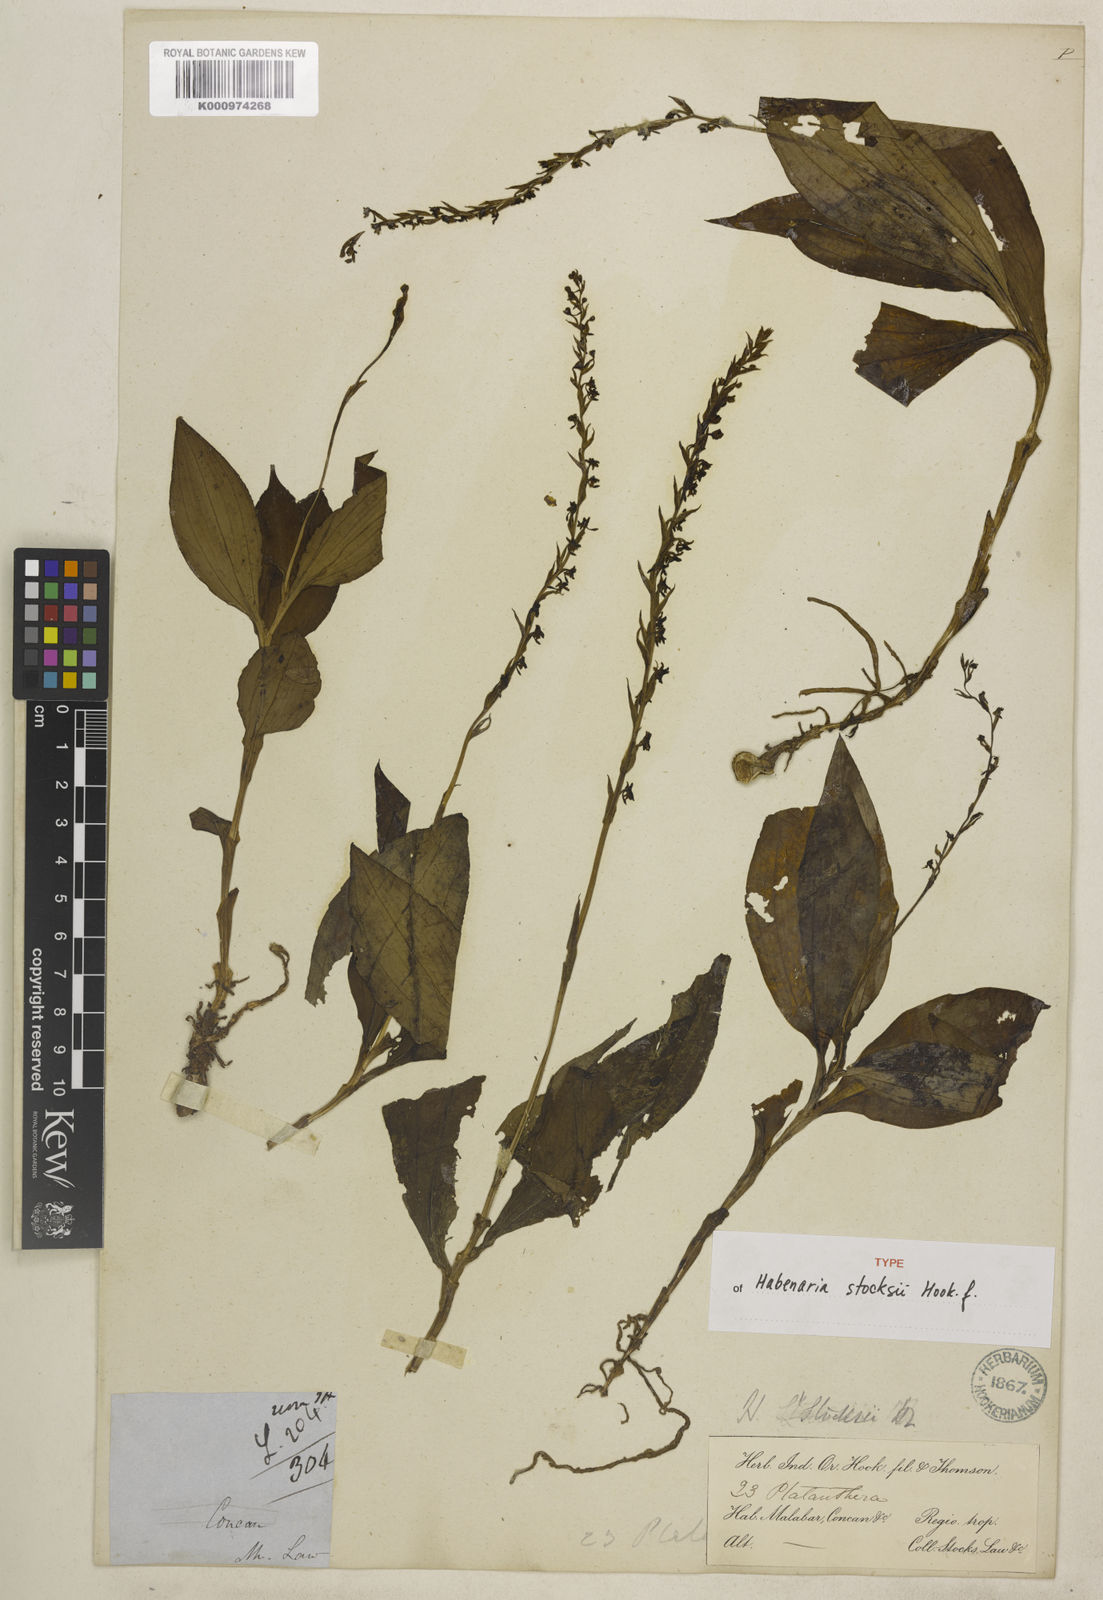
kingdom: Plantae
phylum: Tracheophyta
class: Liliopsida
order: Asparagales
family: Orchidaceae
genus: Peristylus
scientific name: Peristylus stocksii
